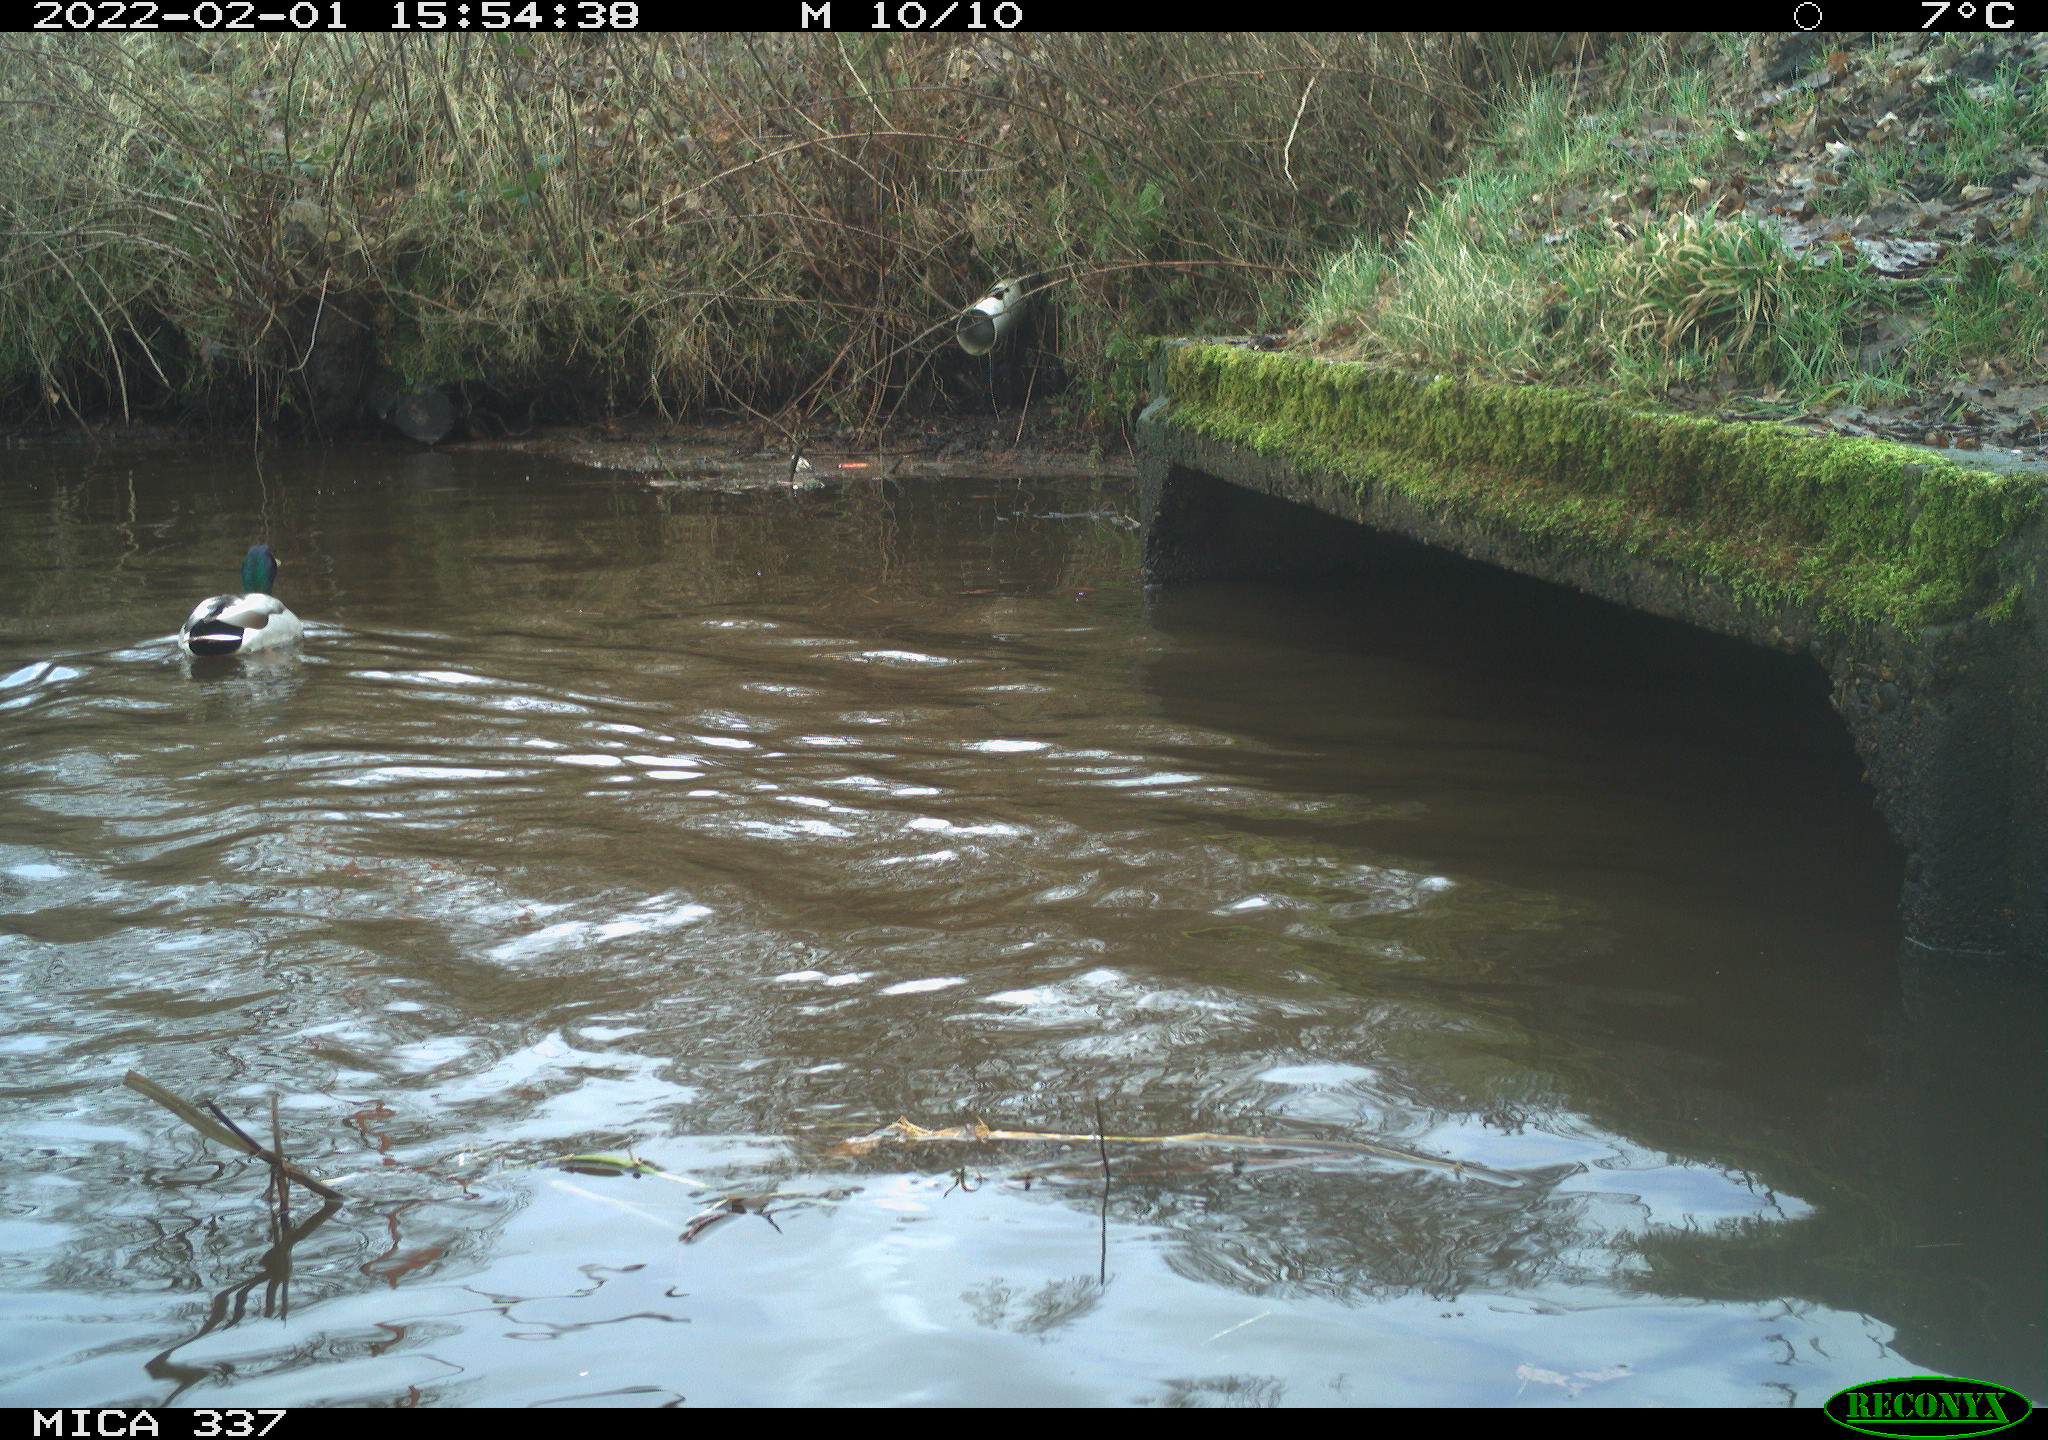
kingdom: Animalia
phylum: Chordata
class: Aves
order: Anseriformes
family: Anatidae
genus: Anas
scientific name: Anas platyrhynchos
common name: Mallard
